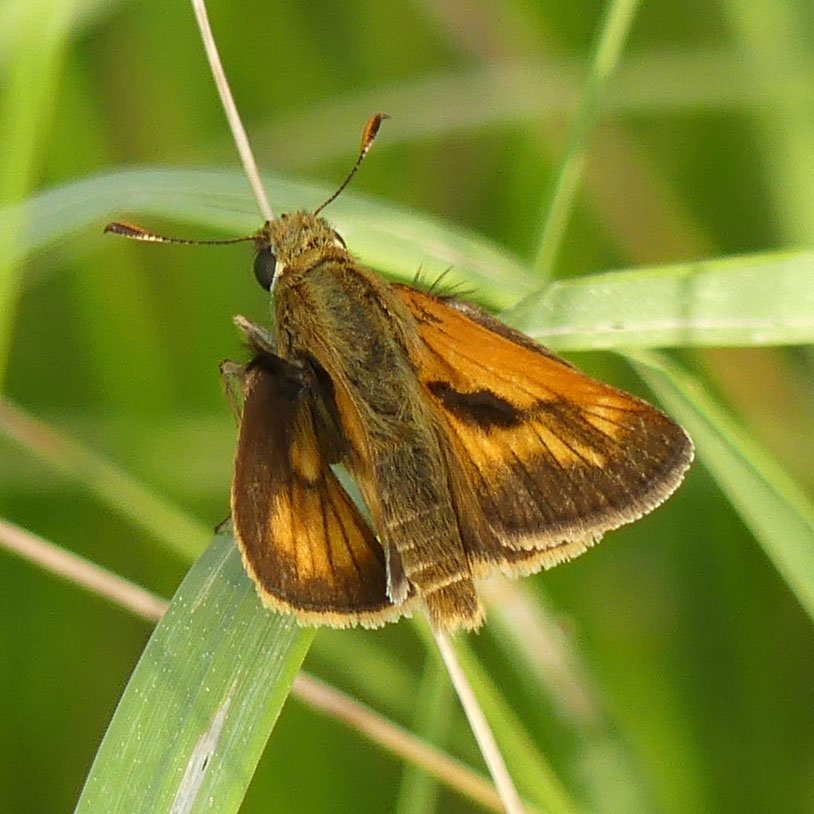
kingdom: Animalia
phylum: Arthropoda
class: Insecta
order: Lepidoptera
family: Hesperiidae
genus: Polites
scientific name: Polites
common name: Long Dash Skipper
